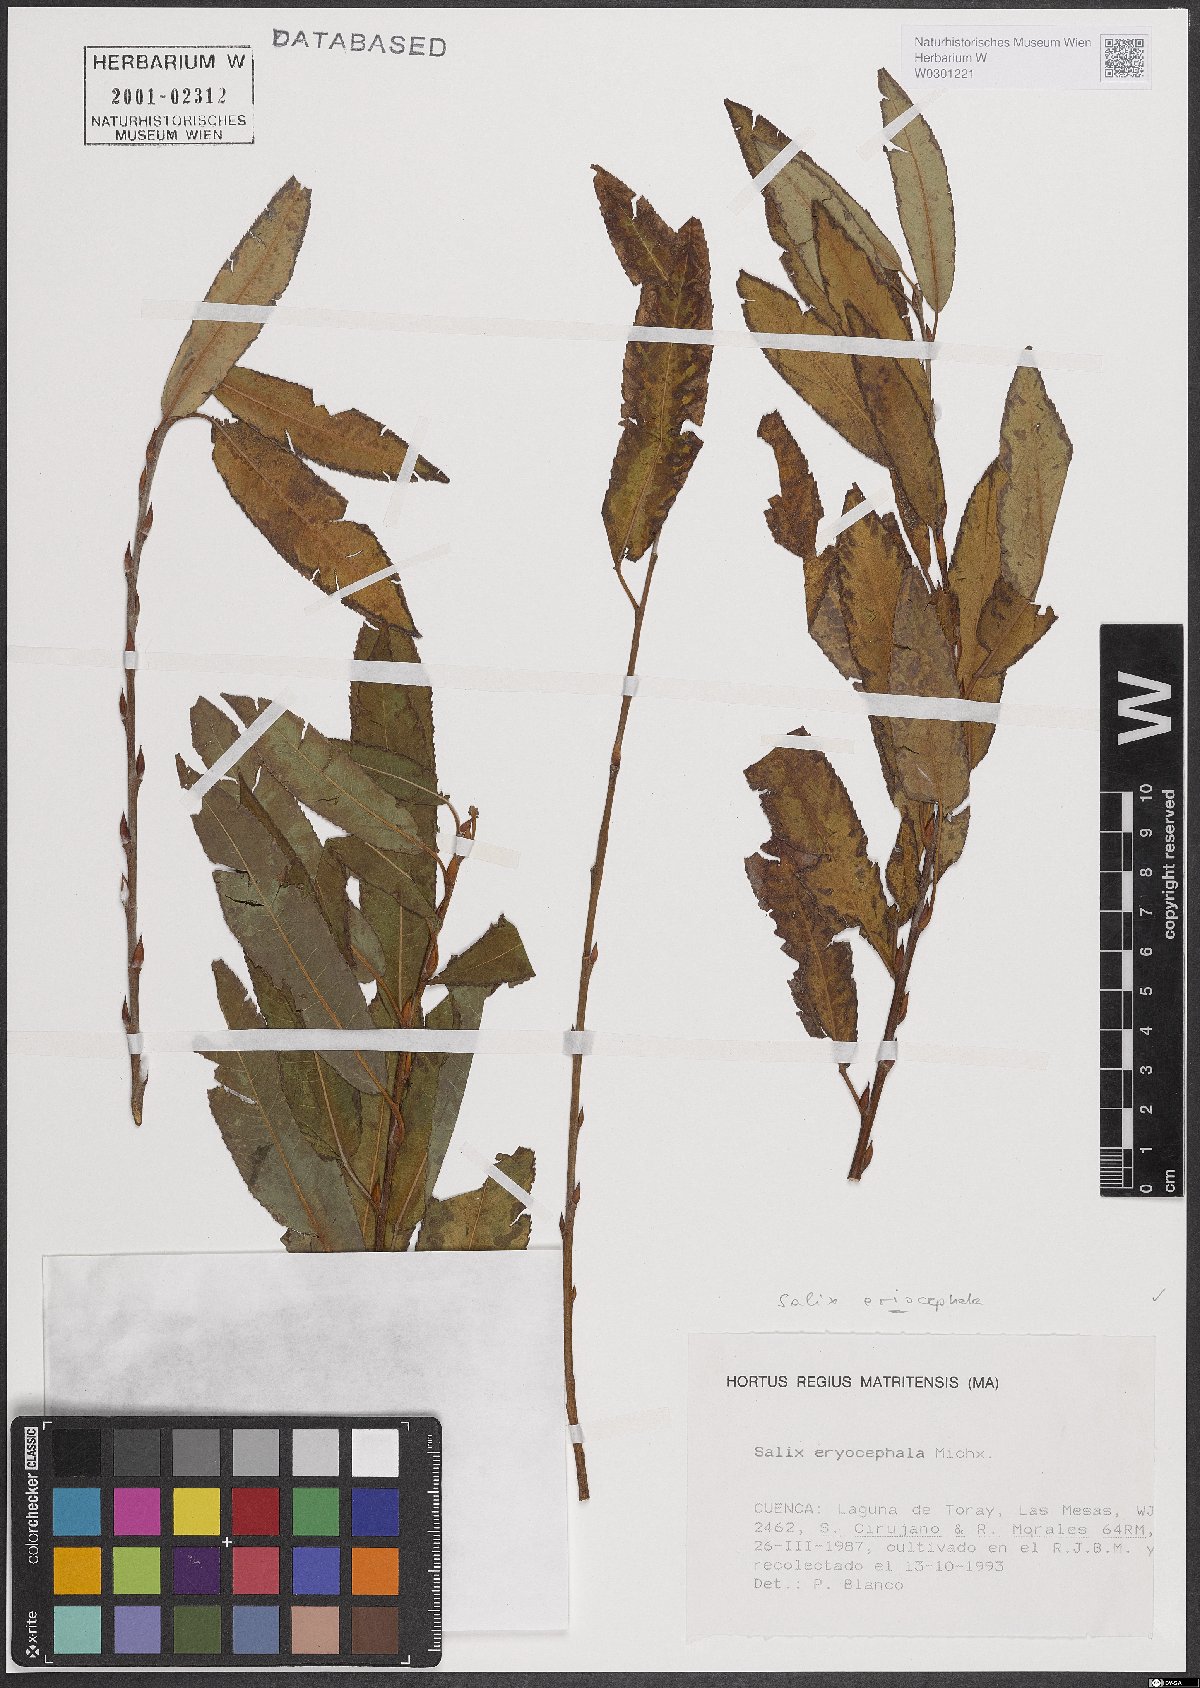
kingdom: Plantae
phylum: Tracheophyta
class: Magnoliopsida
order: Malpighiales
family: Salicaceae
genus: Salix
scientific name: Salix eriocephala
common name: Heart-leaved willow
